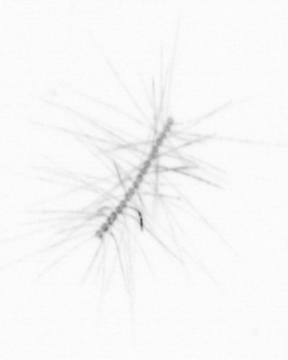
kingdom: Chromista
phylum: Ochrophyta
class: Bacillariophyceae
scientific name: Bacillariophyceae
